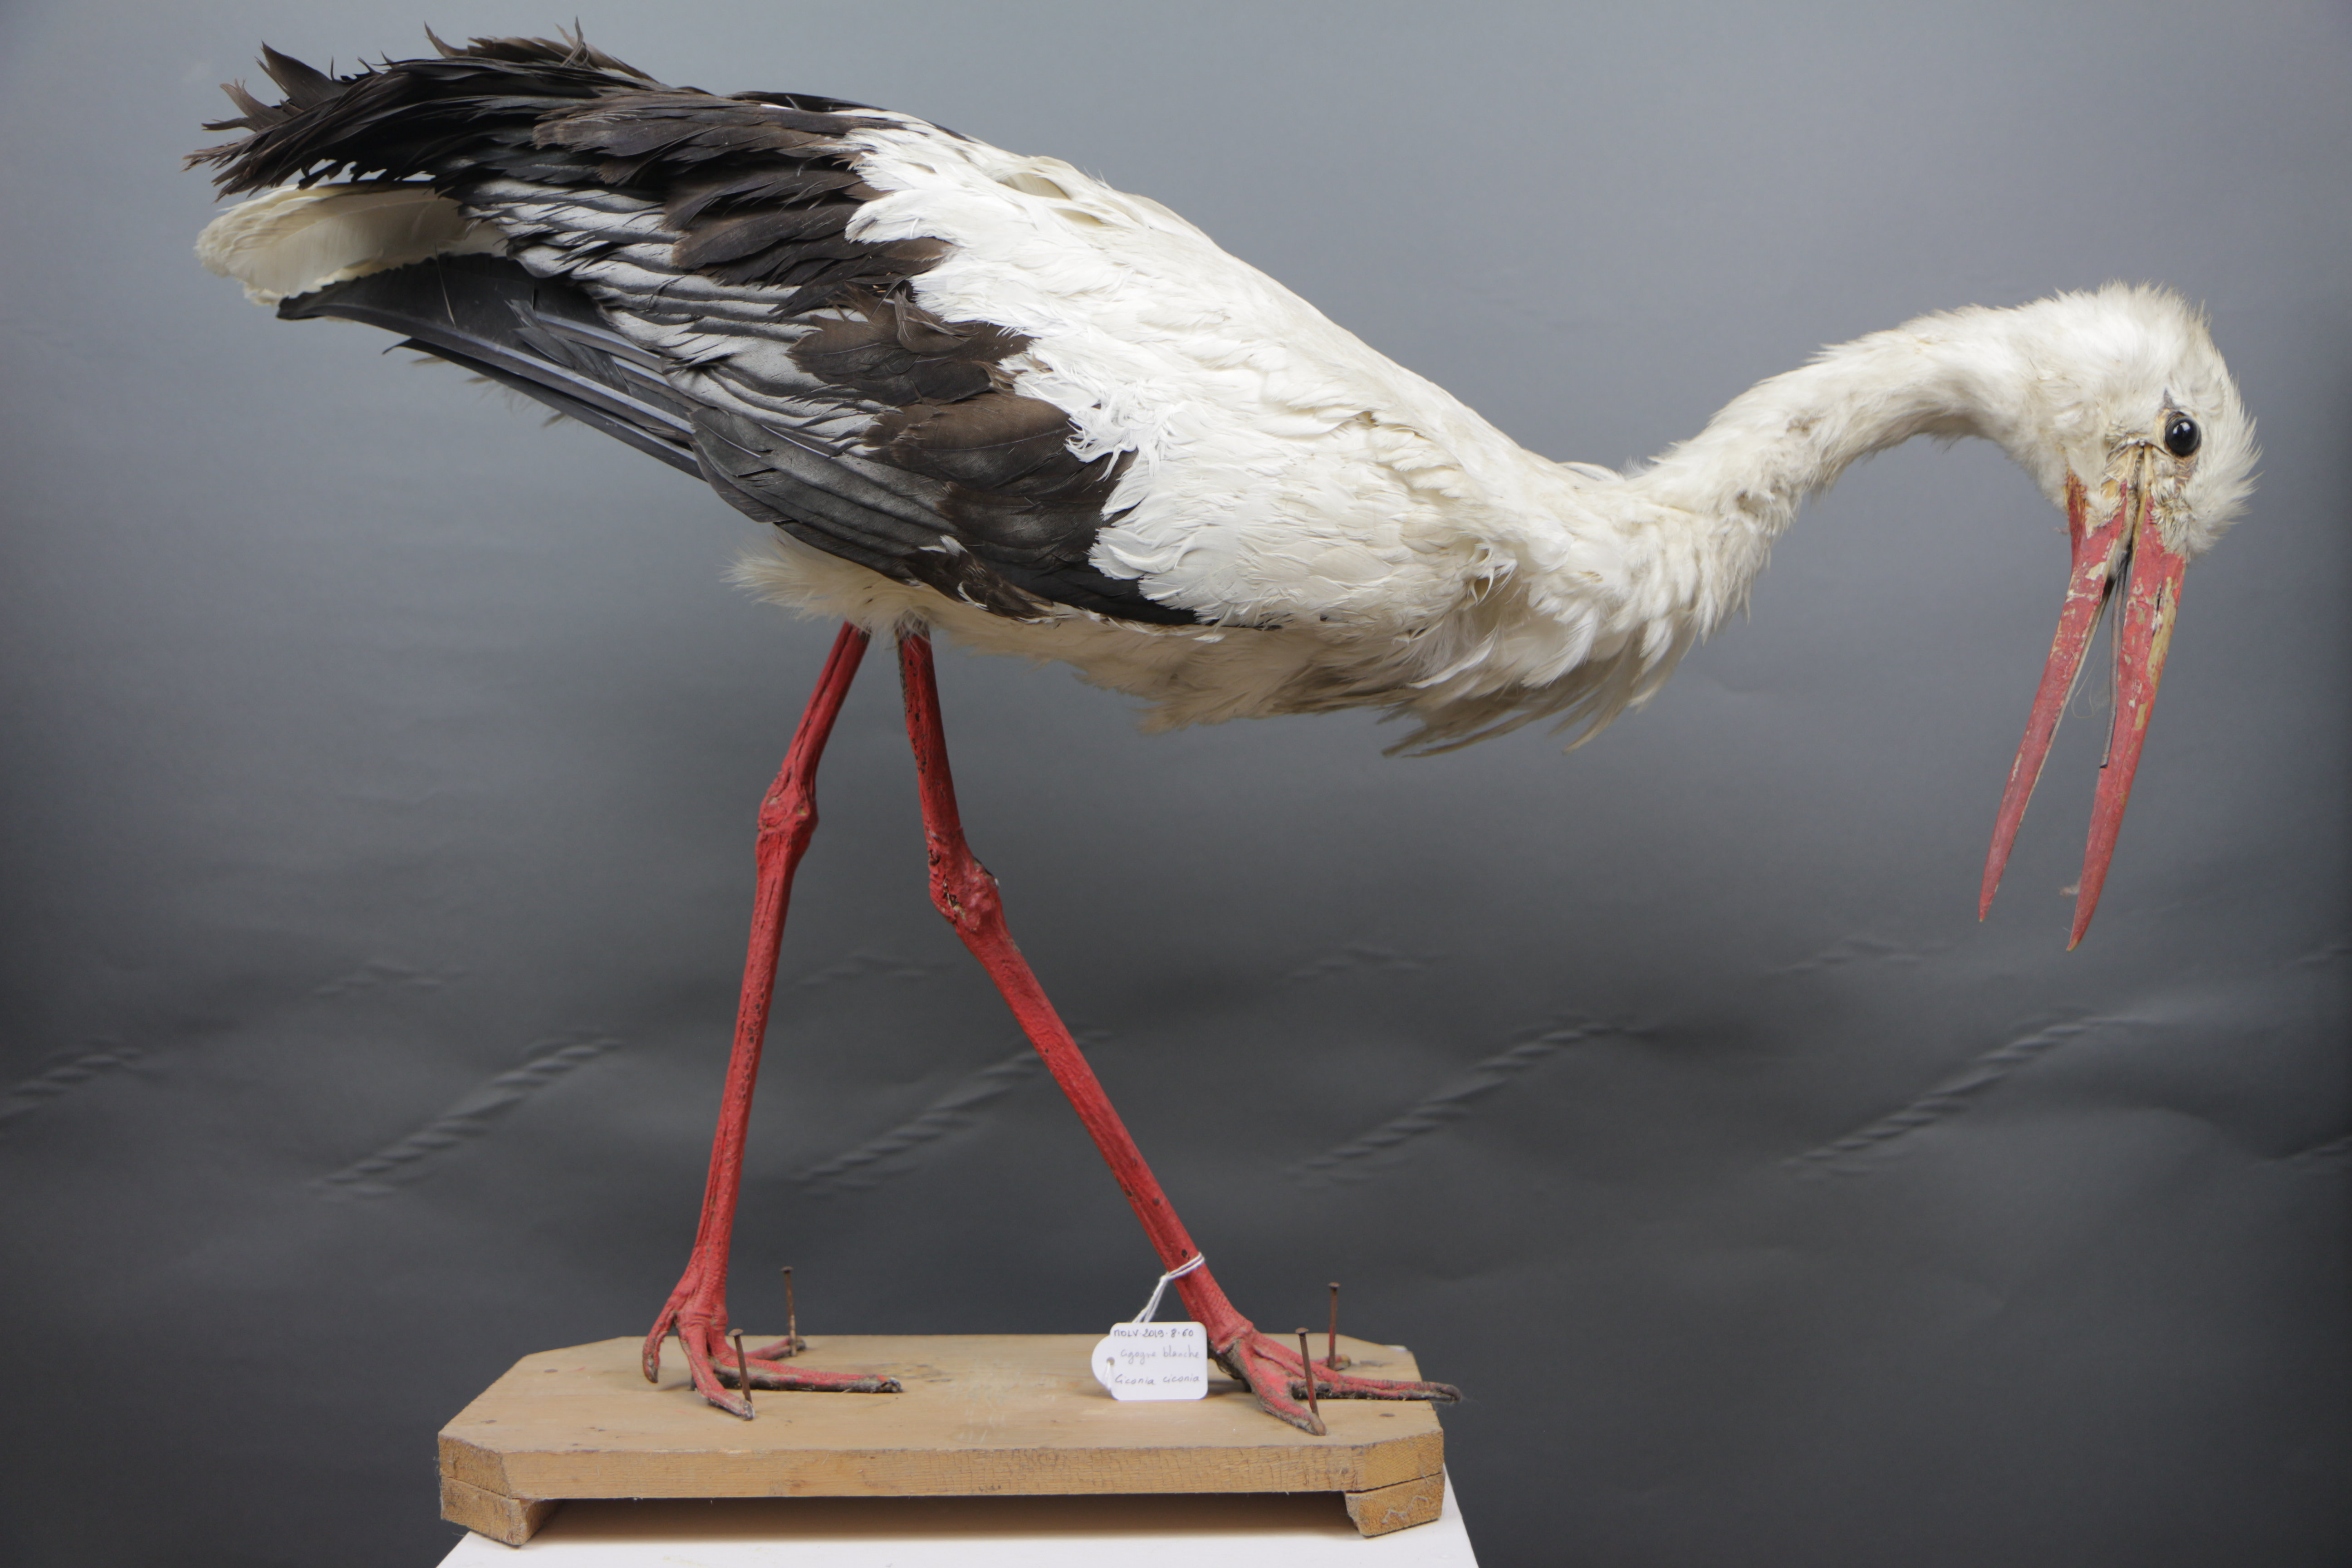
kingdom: Animalia
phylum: Chordata
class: Aves
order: Ciconiiformes
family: Ciconiidae
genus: Ciconia
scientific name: Ciconia ciconia
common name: White stork
